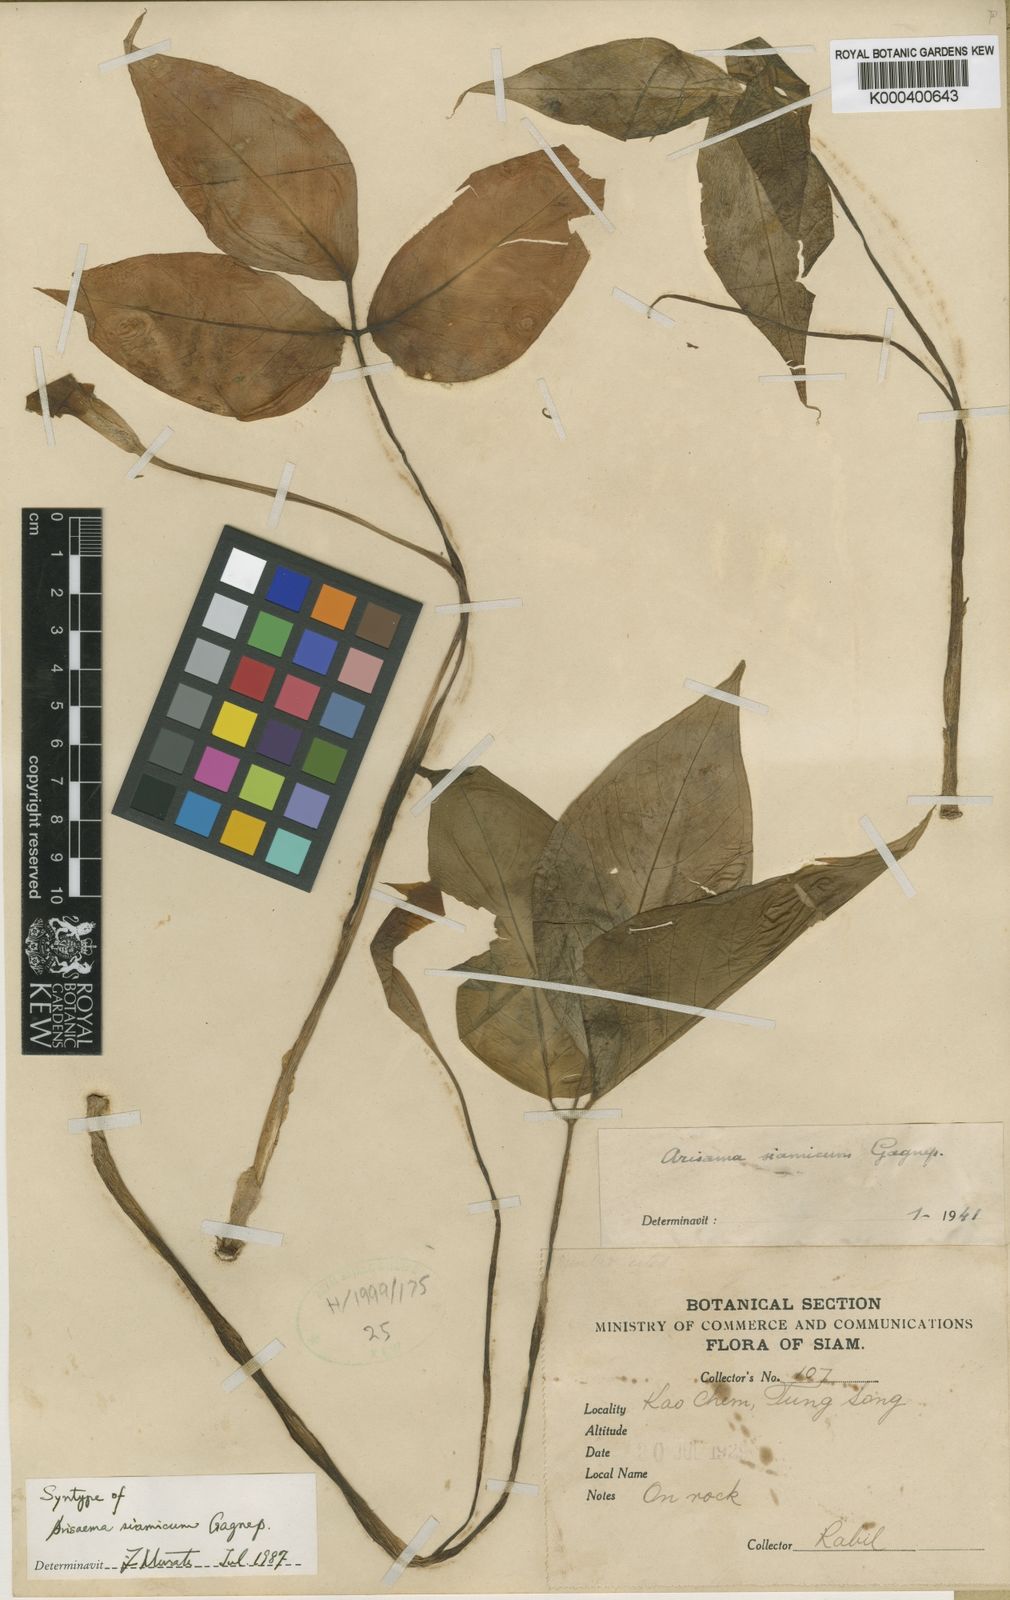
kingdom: Plantae
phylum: Tracheophyta
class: Liliopsida
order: Alismatales
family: Araceae
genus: Arisaema
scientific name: Arisaema siamicum
